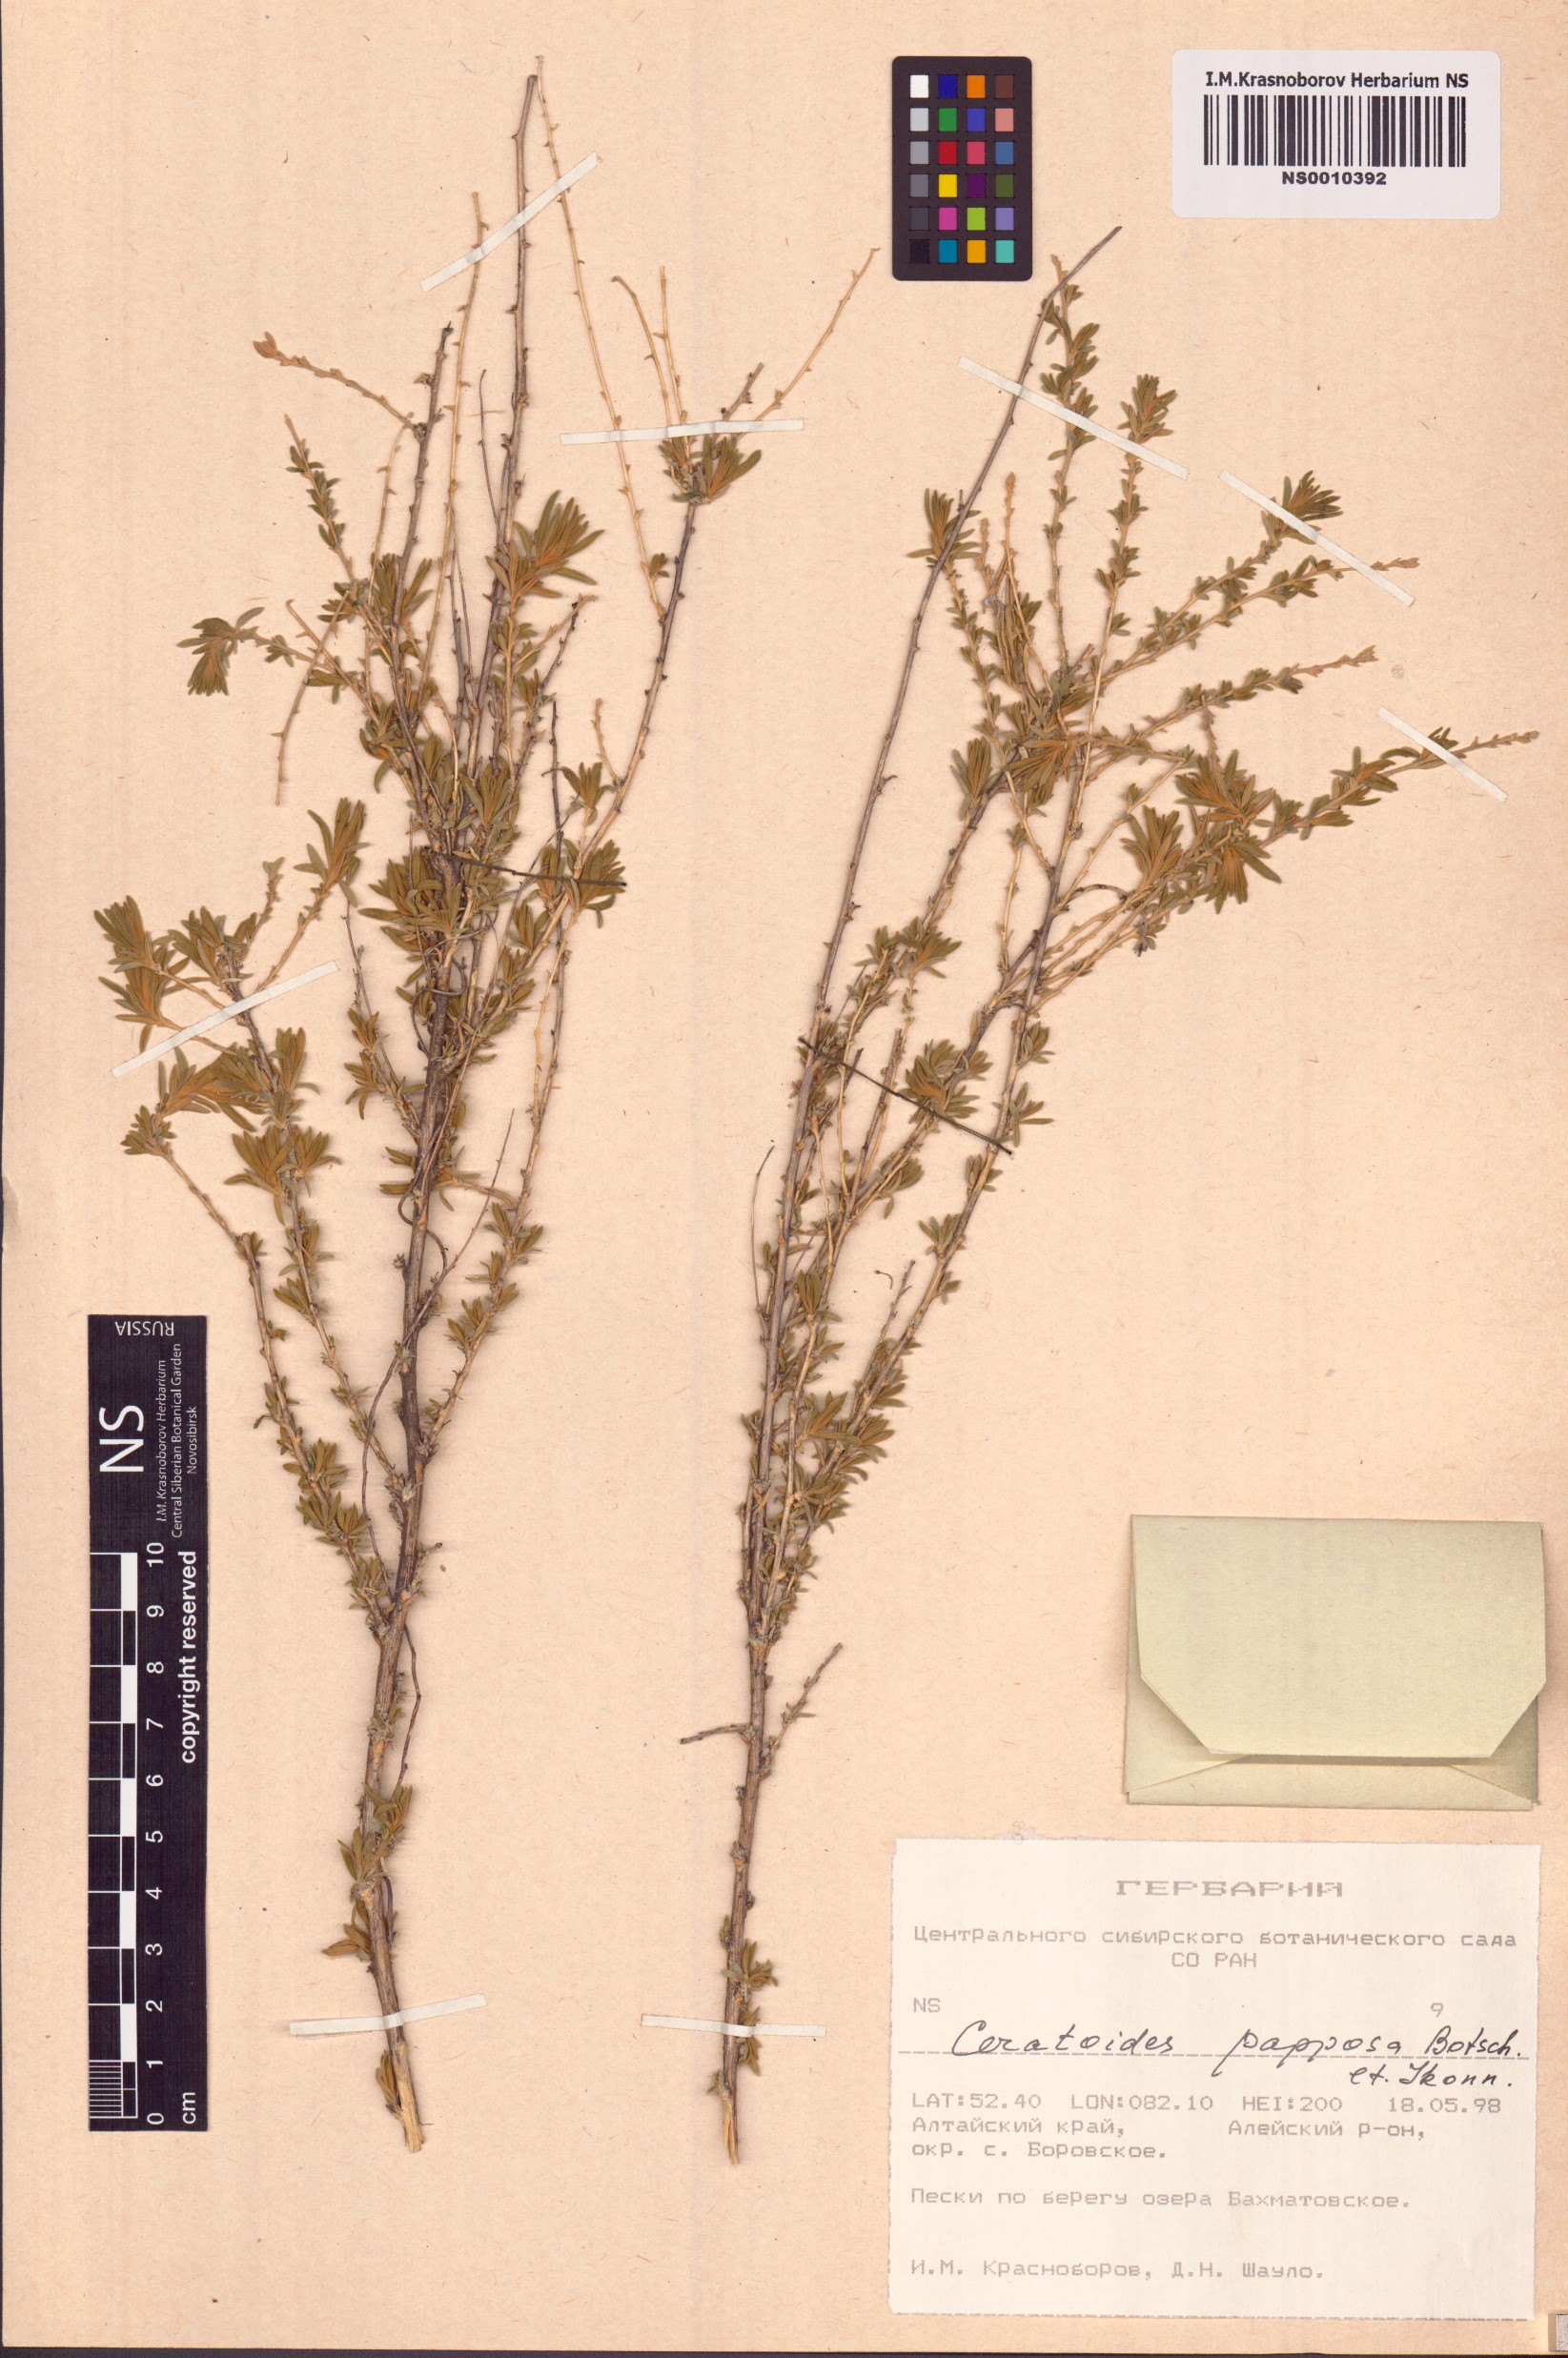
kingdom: Plantae
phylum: Tracheophyta
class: Magnoliopsida
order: Caryophyllales
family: Amaranthaceae
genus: Krascheninnikovia
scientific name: Krascheninnikovia ceratoides
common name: Pamirian winterfat
